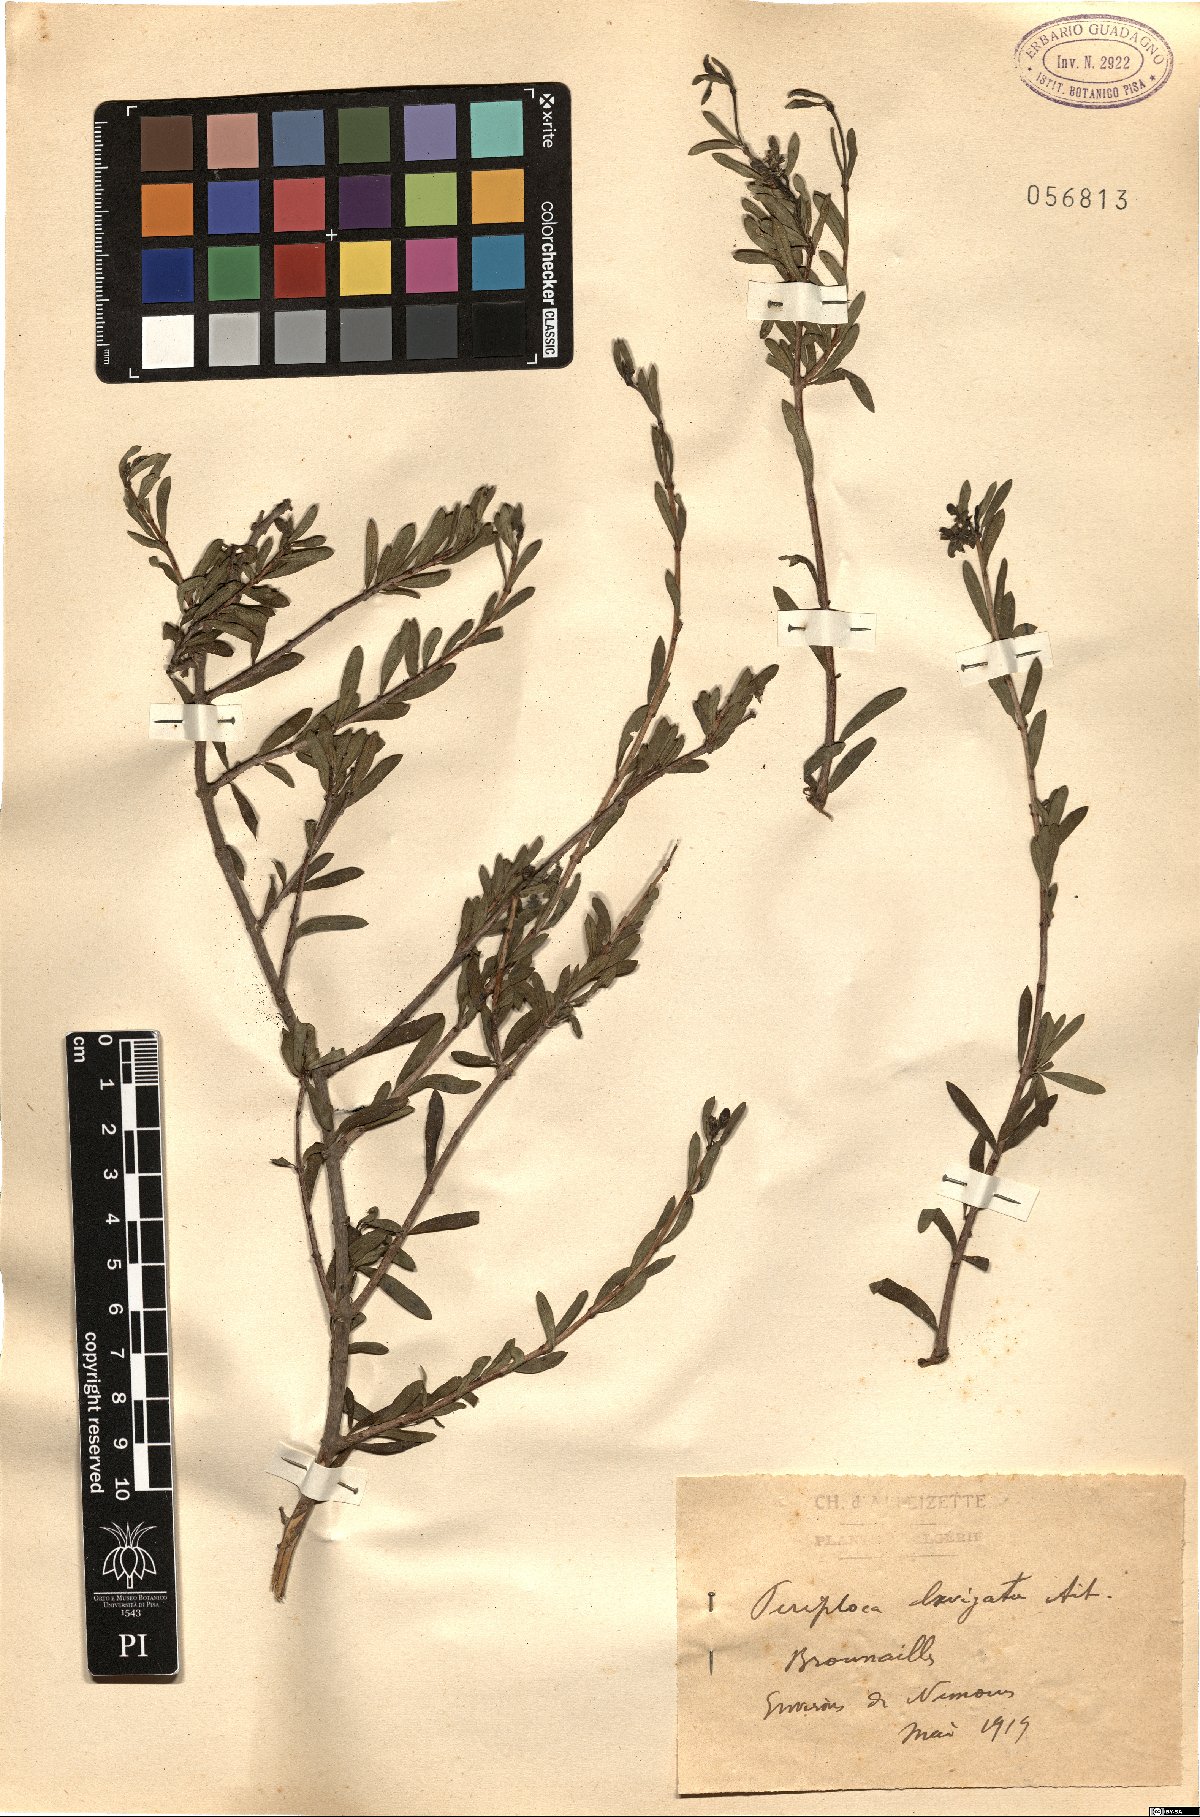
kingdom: Plantae
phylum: Tracheophyta
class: Magnoliopsida
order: Gentianales
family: Apocynaceae
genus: Periploca
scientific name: Periploca laevigata
